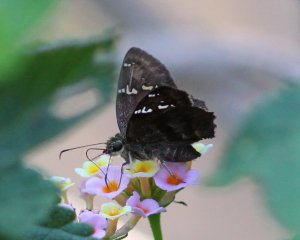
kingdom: Animalia
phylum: Arthropoda
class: Insecta
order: Lepidoptera
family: Hesperiidae
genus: Cabares
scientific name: Cabares potrillo
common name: Potrillo Skipper
